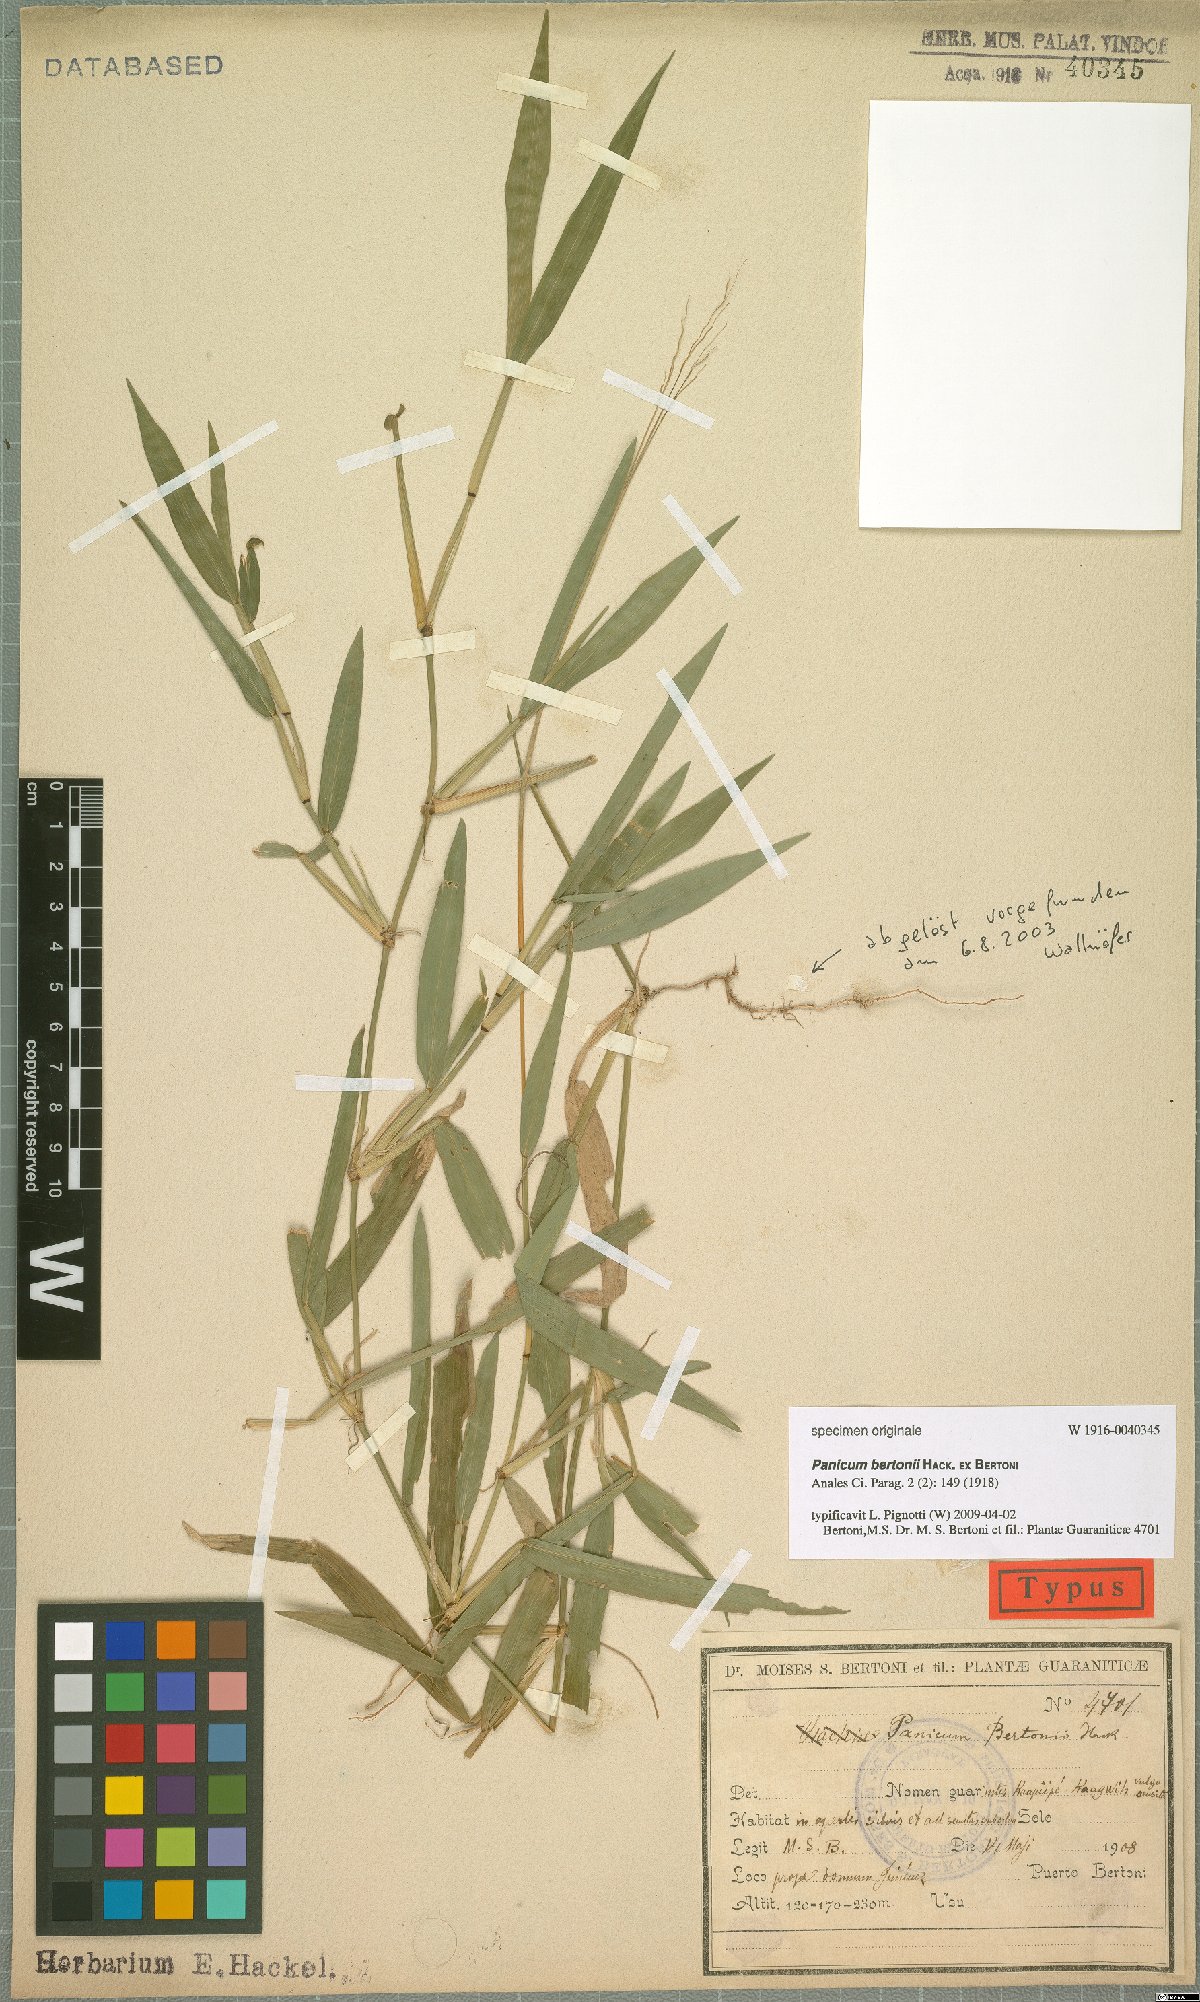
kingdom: Plantae
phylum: Tracheophyta
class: Liliopsida
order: Poales
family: Poaceae
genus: Panicum
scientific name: Panicum bertonii
